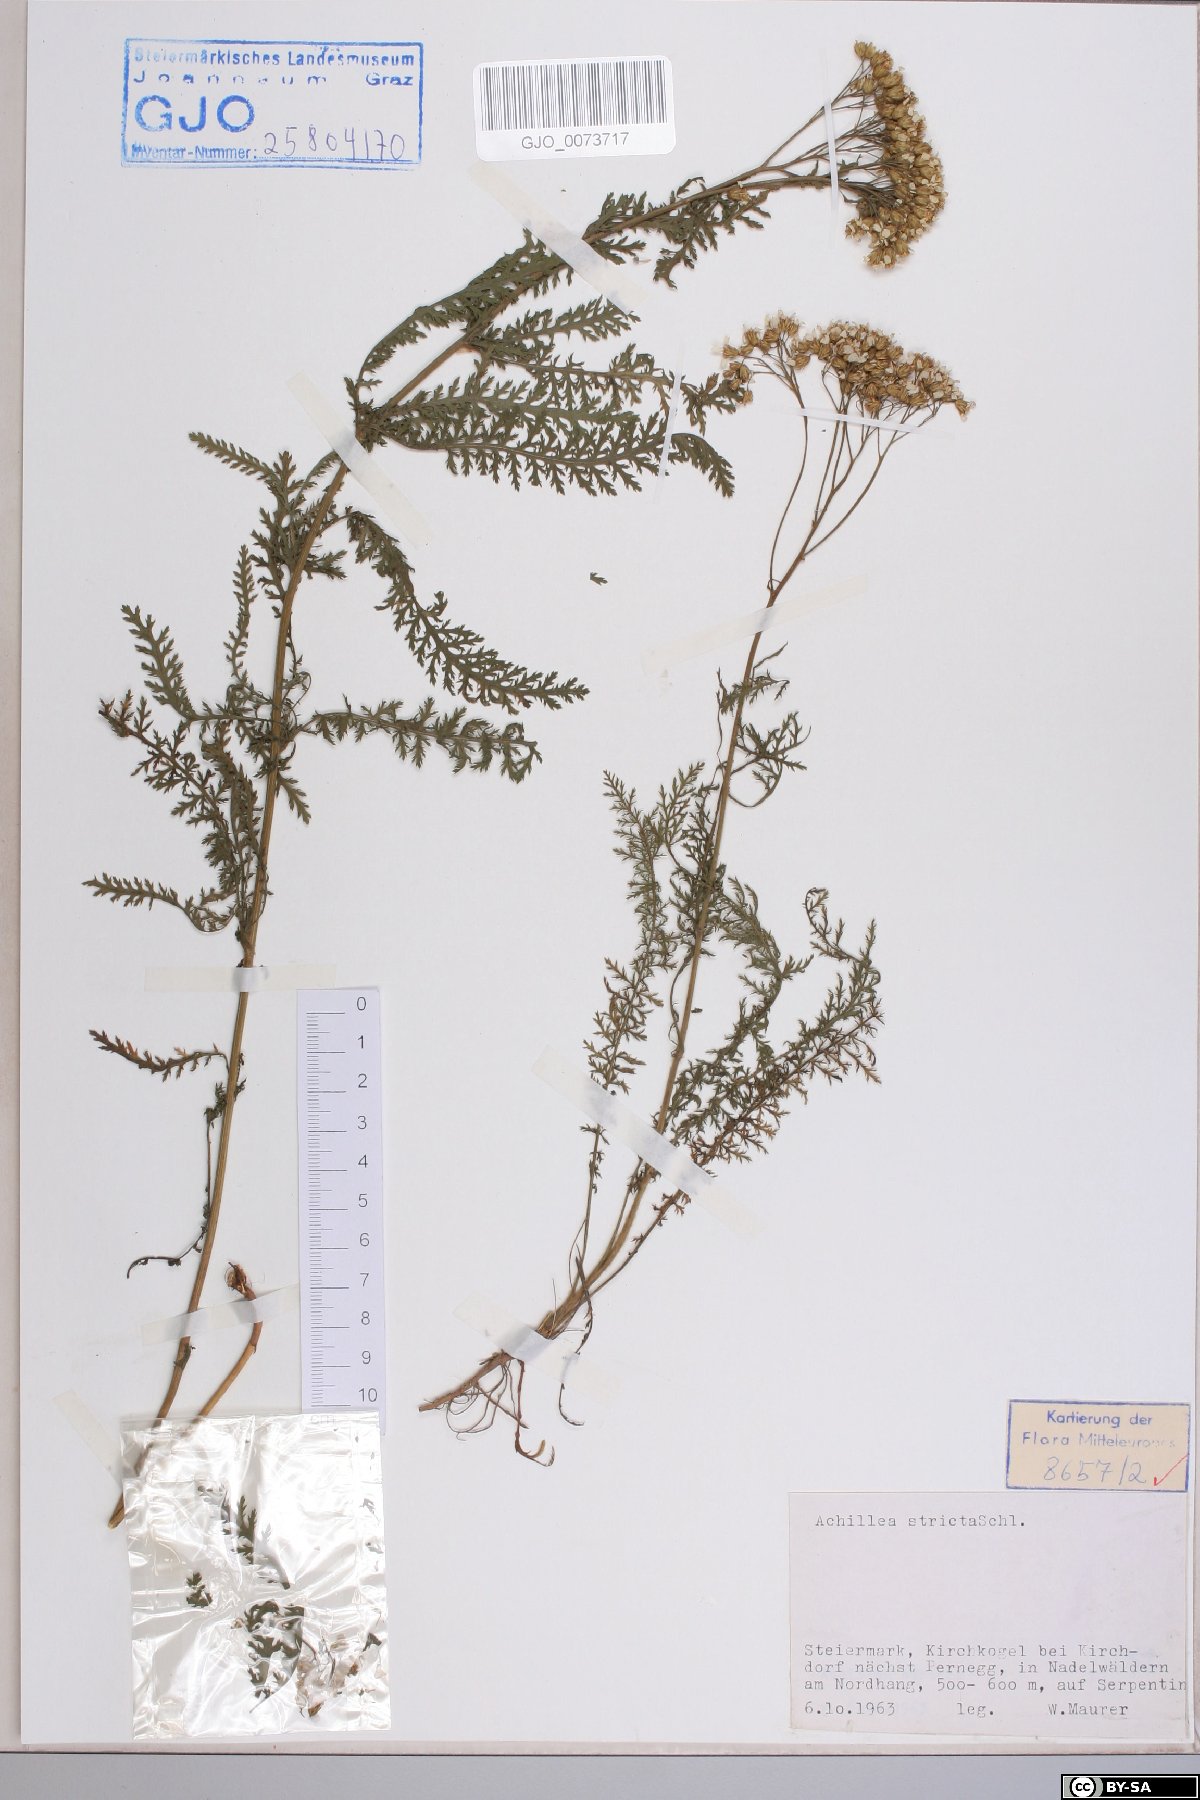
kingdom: Plantae
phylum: Tracheophyta
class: Magnoliopsida
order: Asterales
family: Asteraceae
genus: Achillea
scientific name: Achillea distans
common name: Tall yarrow
